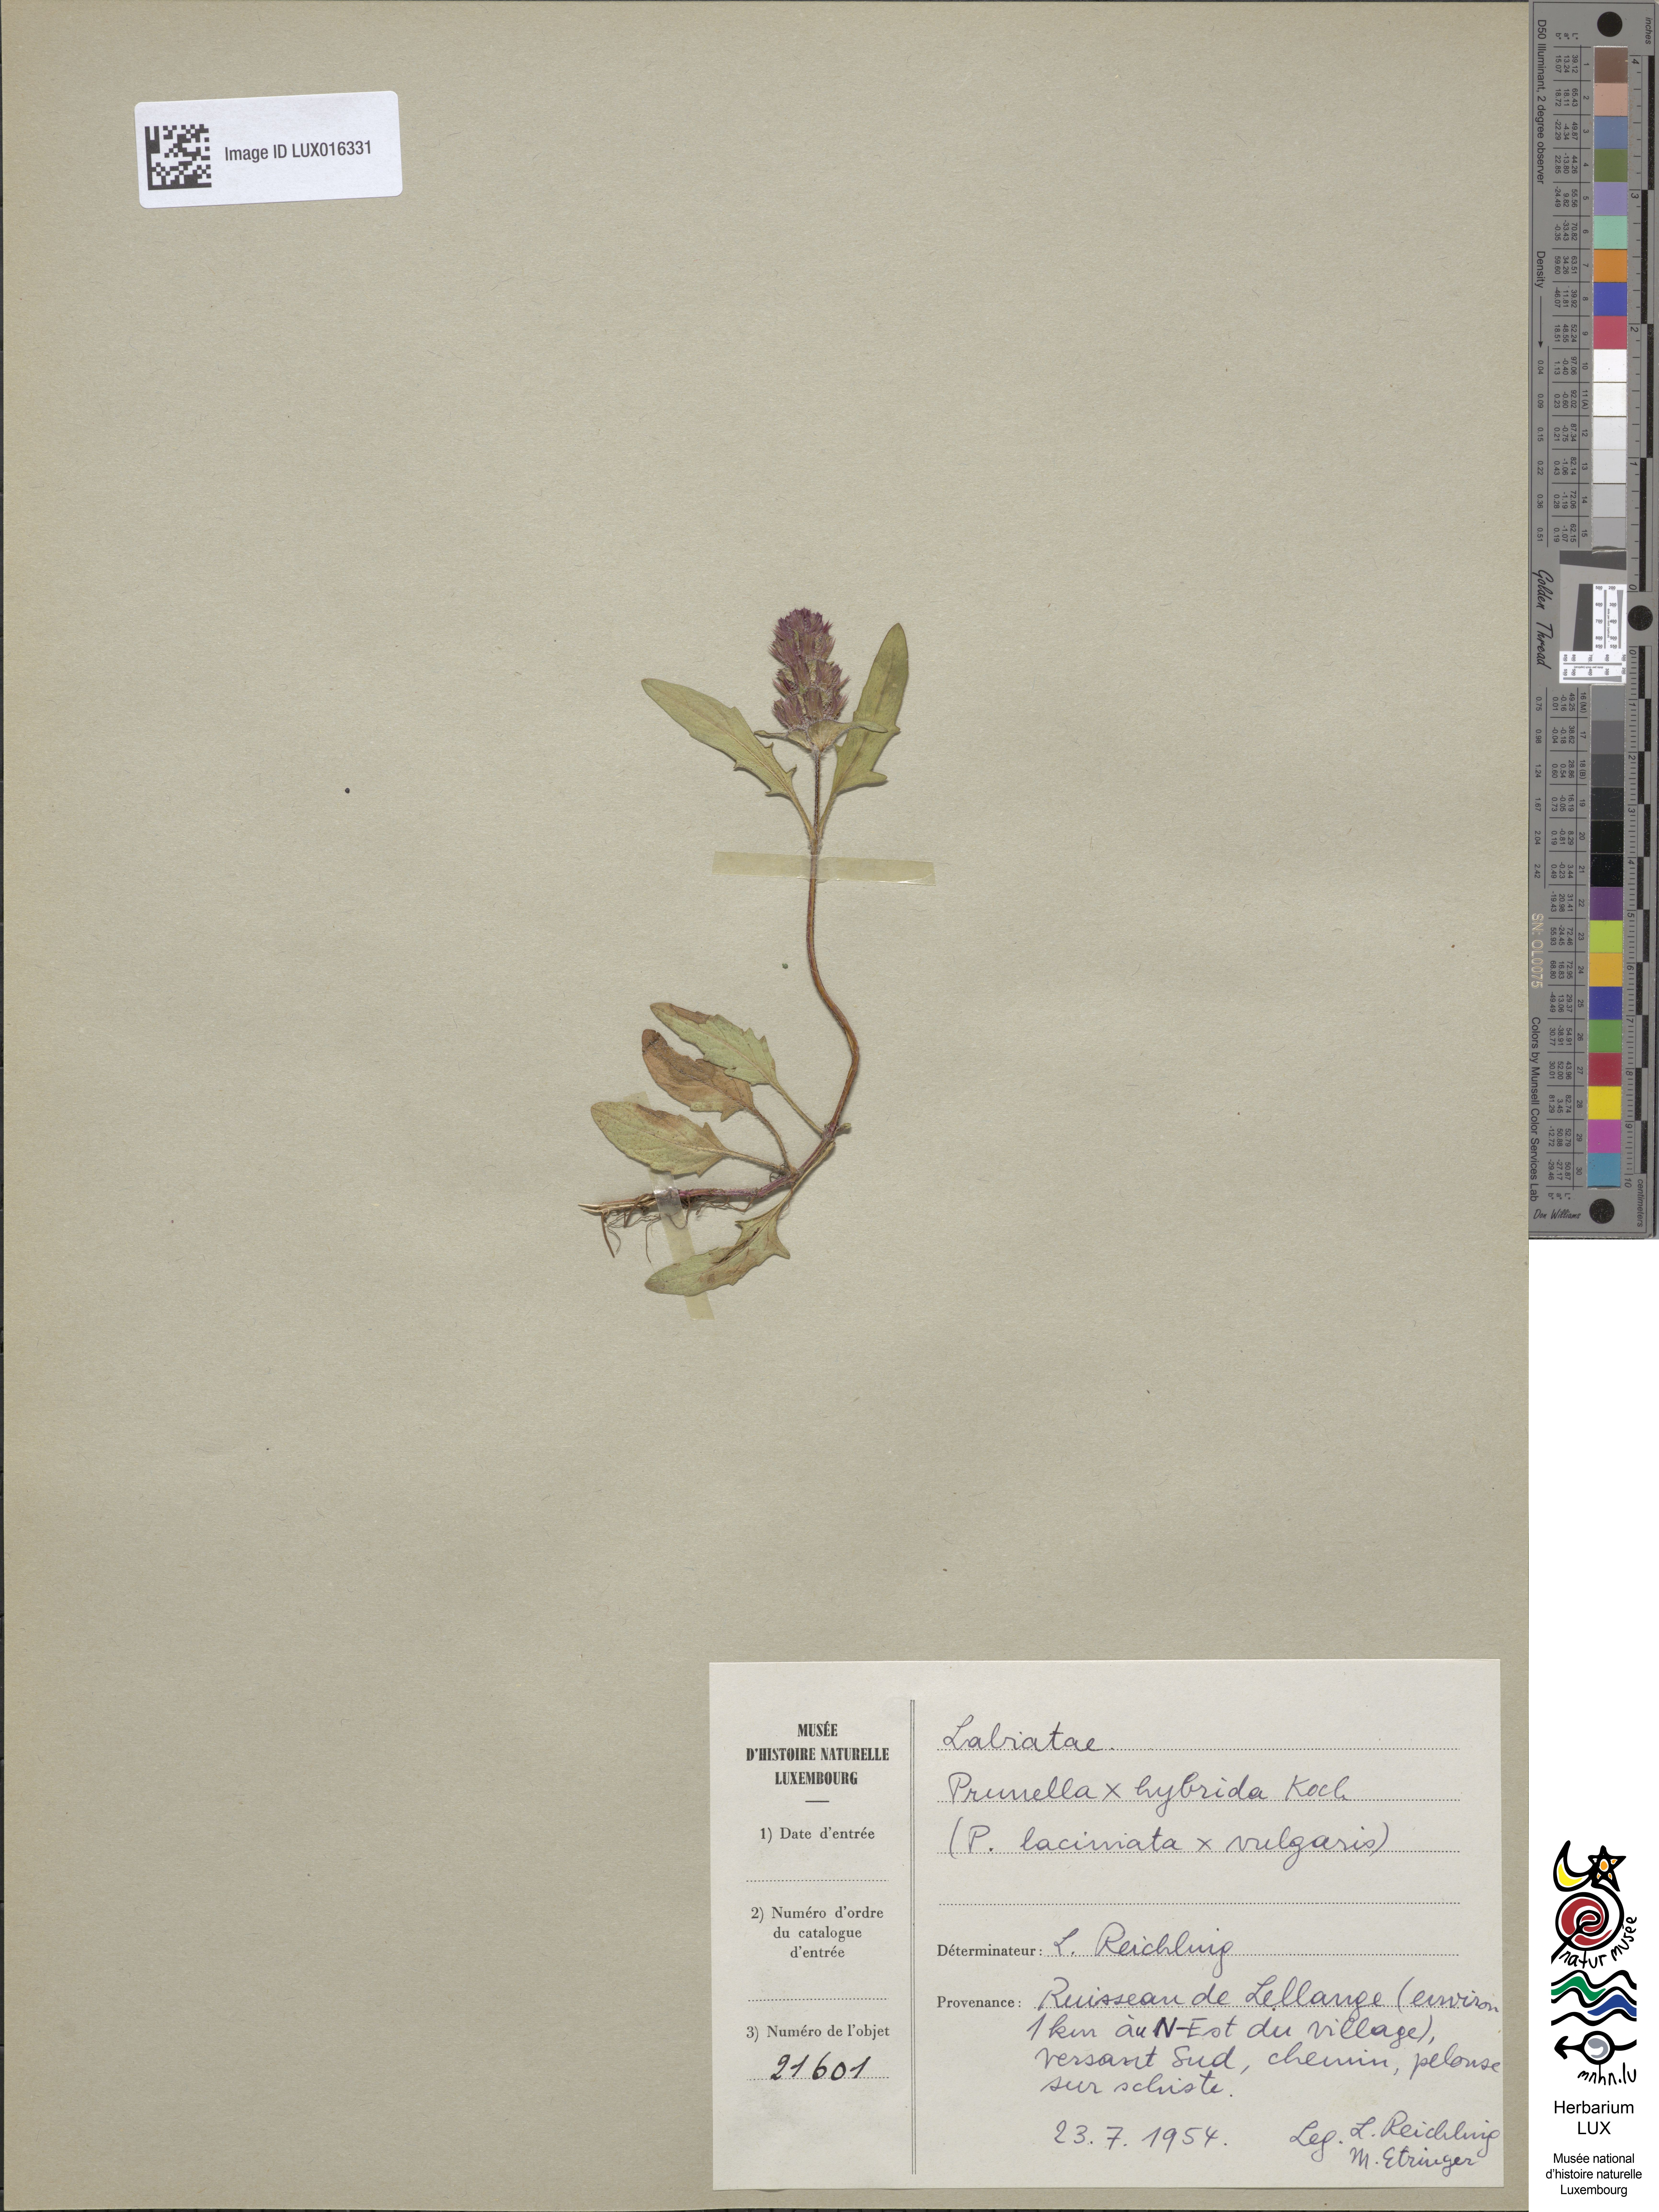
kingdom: Animalia
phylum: Chordata
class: Aves
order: Passeriformes
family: Prunellidae
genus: Prunella
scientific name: Prunella
